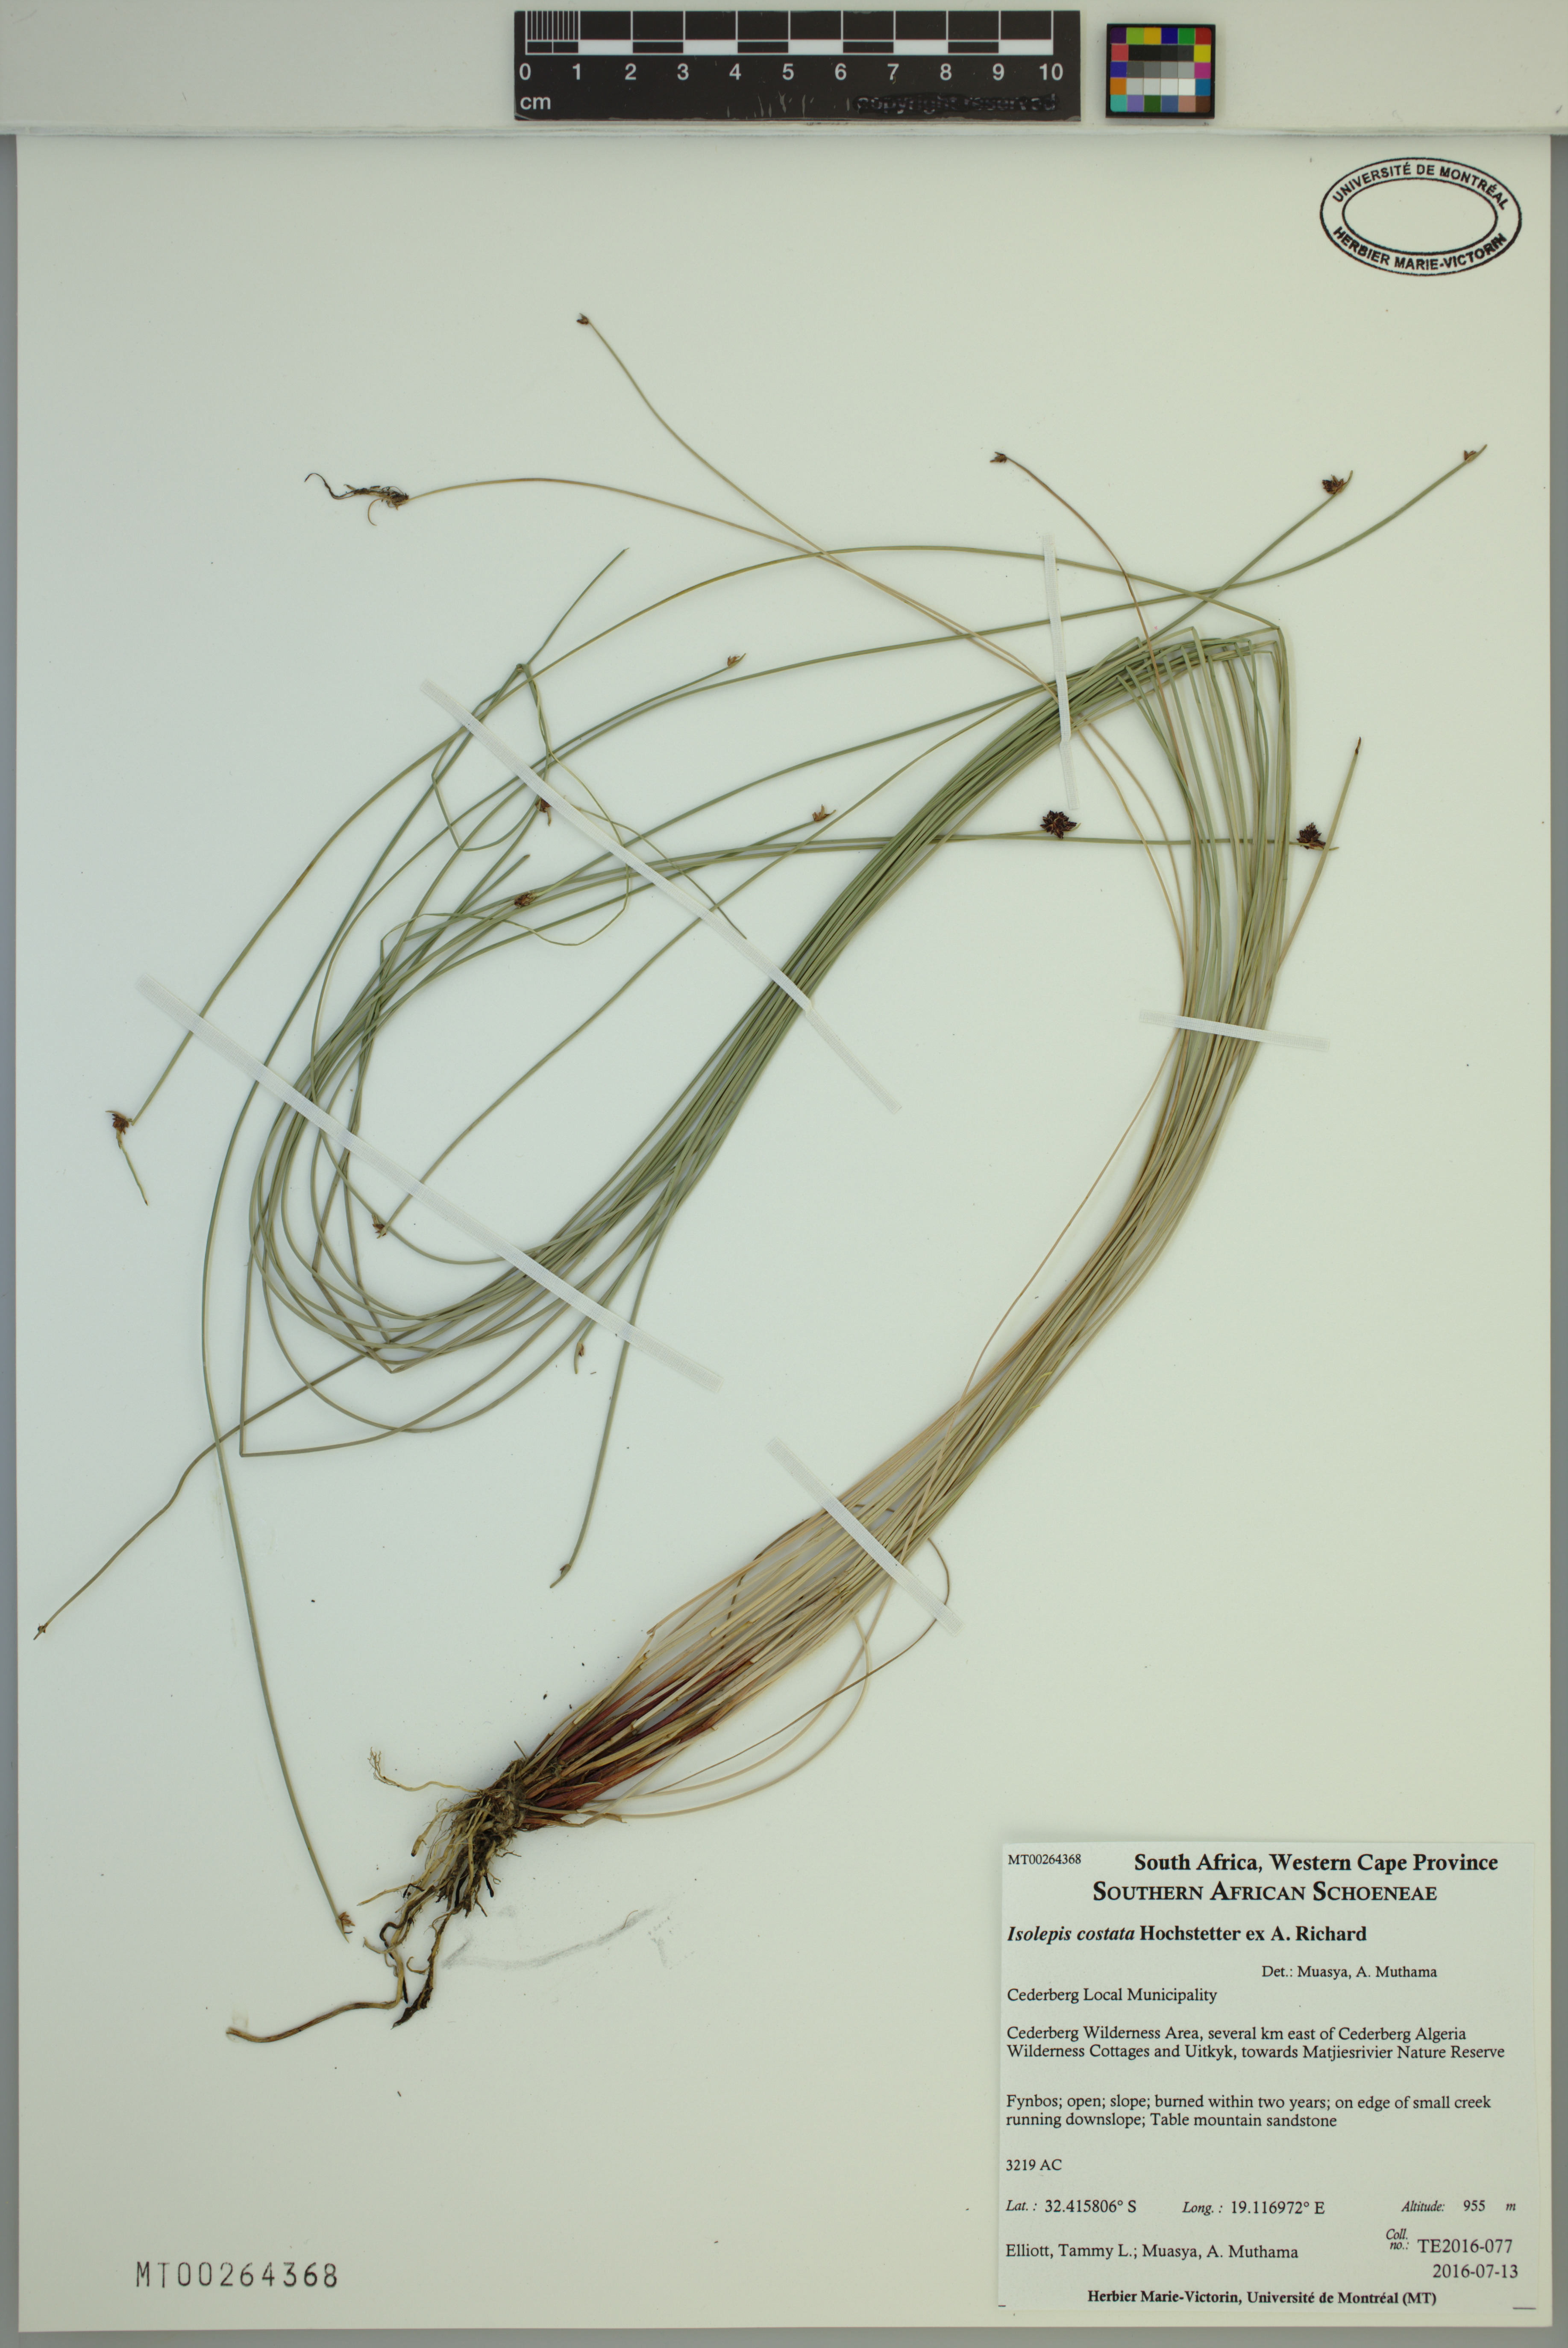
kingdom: Plantae
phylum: Tracheophyta
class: Liliopsida
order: Poales
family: Cyperaceae
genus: Isolepis
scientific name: Isolepis costata
